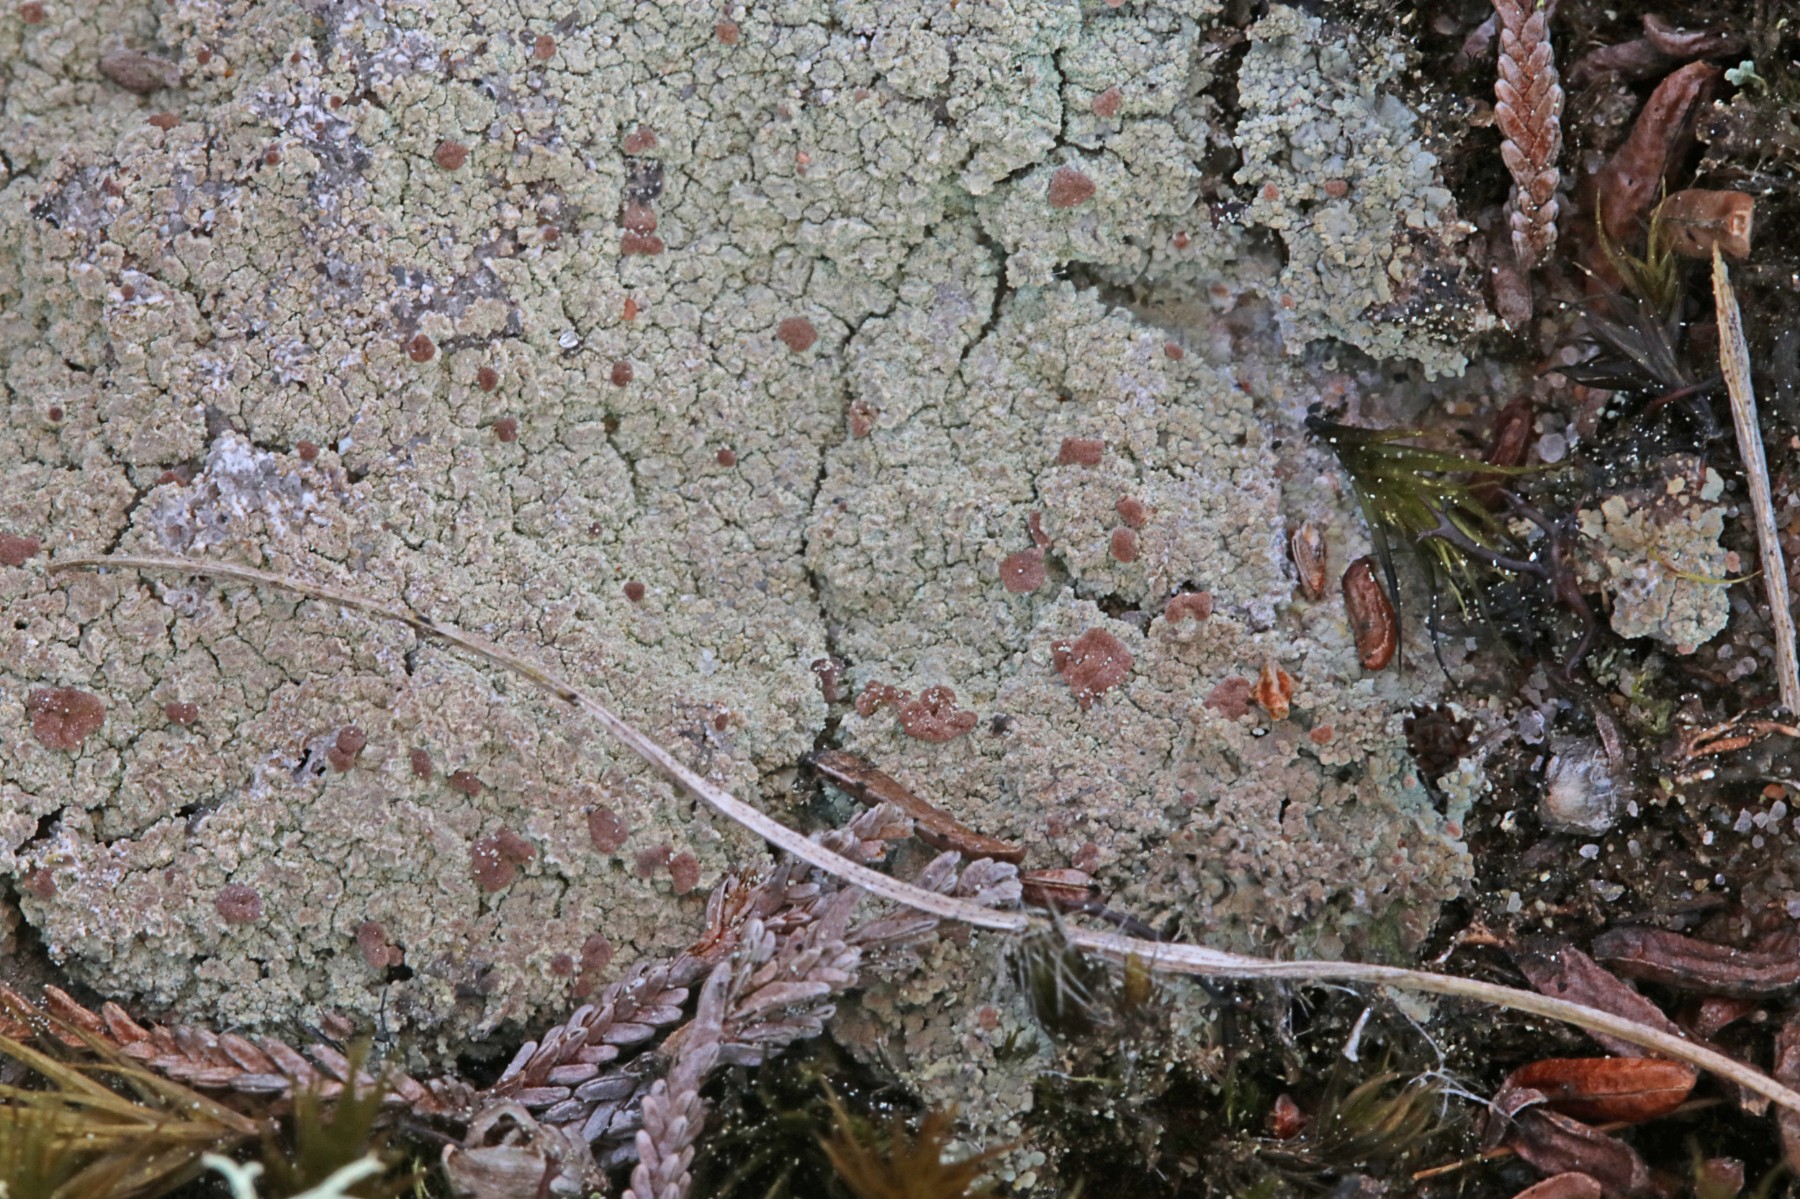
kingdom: Fungi
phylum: Ascomycota
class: Lecanoromycetes
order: Baeomycetales
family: Baeomycetaceae
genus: Baeomyces
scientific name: Baeomyces rufus
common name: rødbrun svampelav
